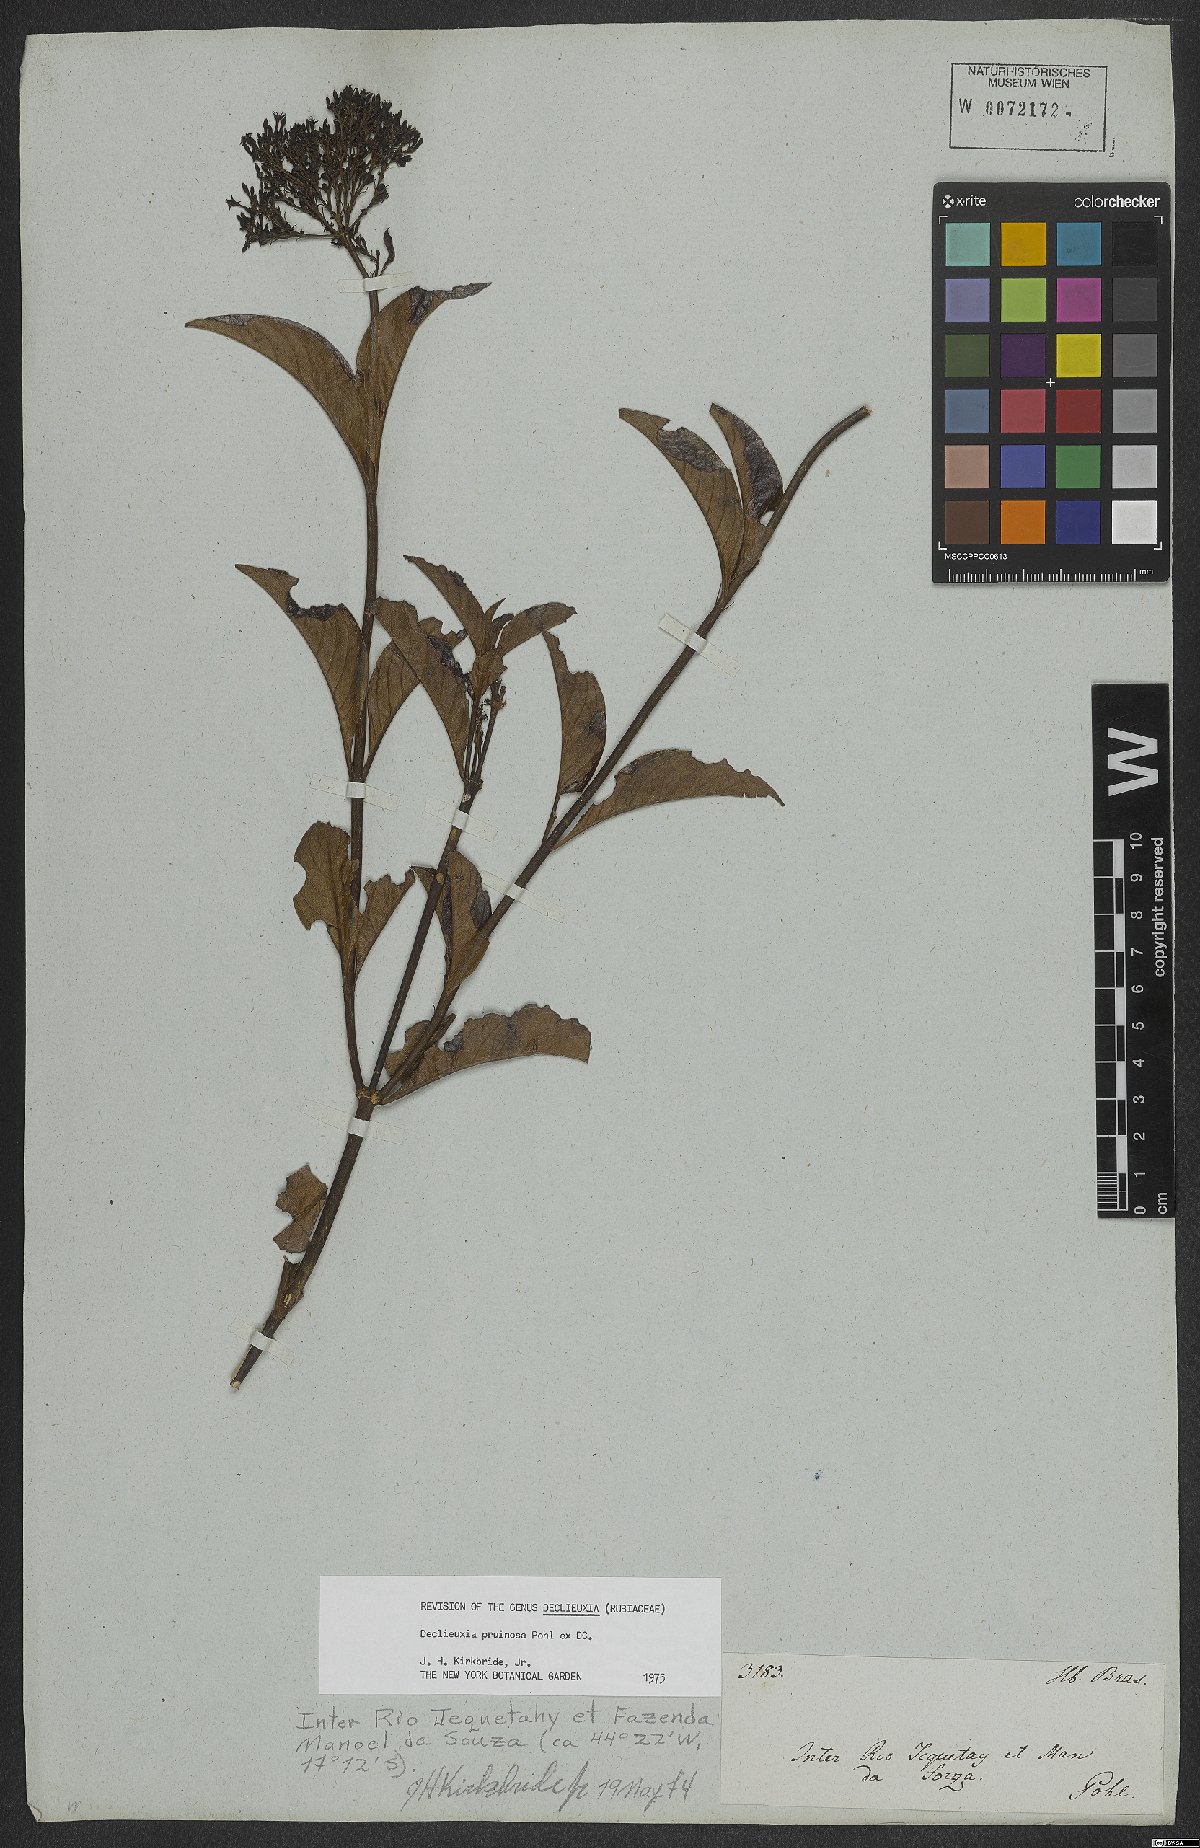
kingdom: Plantae
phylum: Tracheophyta
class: Magnoliopsida
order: Gentianales
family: Rubiaceae
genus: Declieuxia
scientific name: Declieuxia pruinosa
